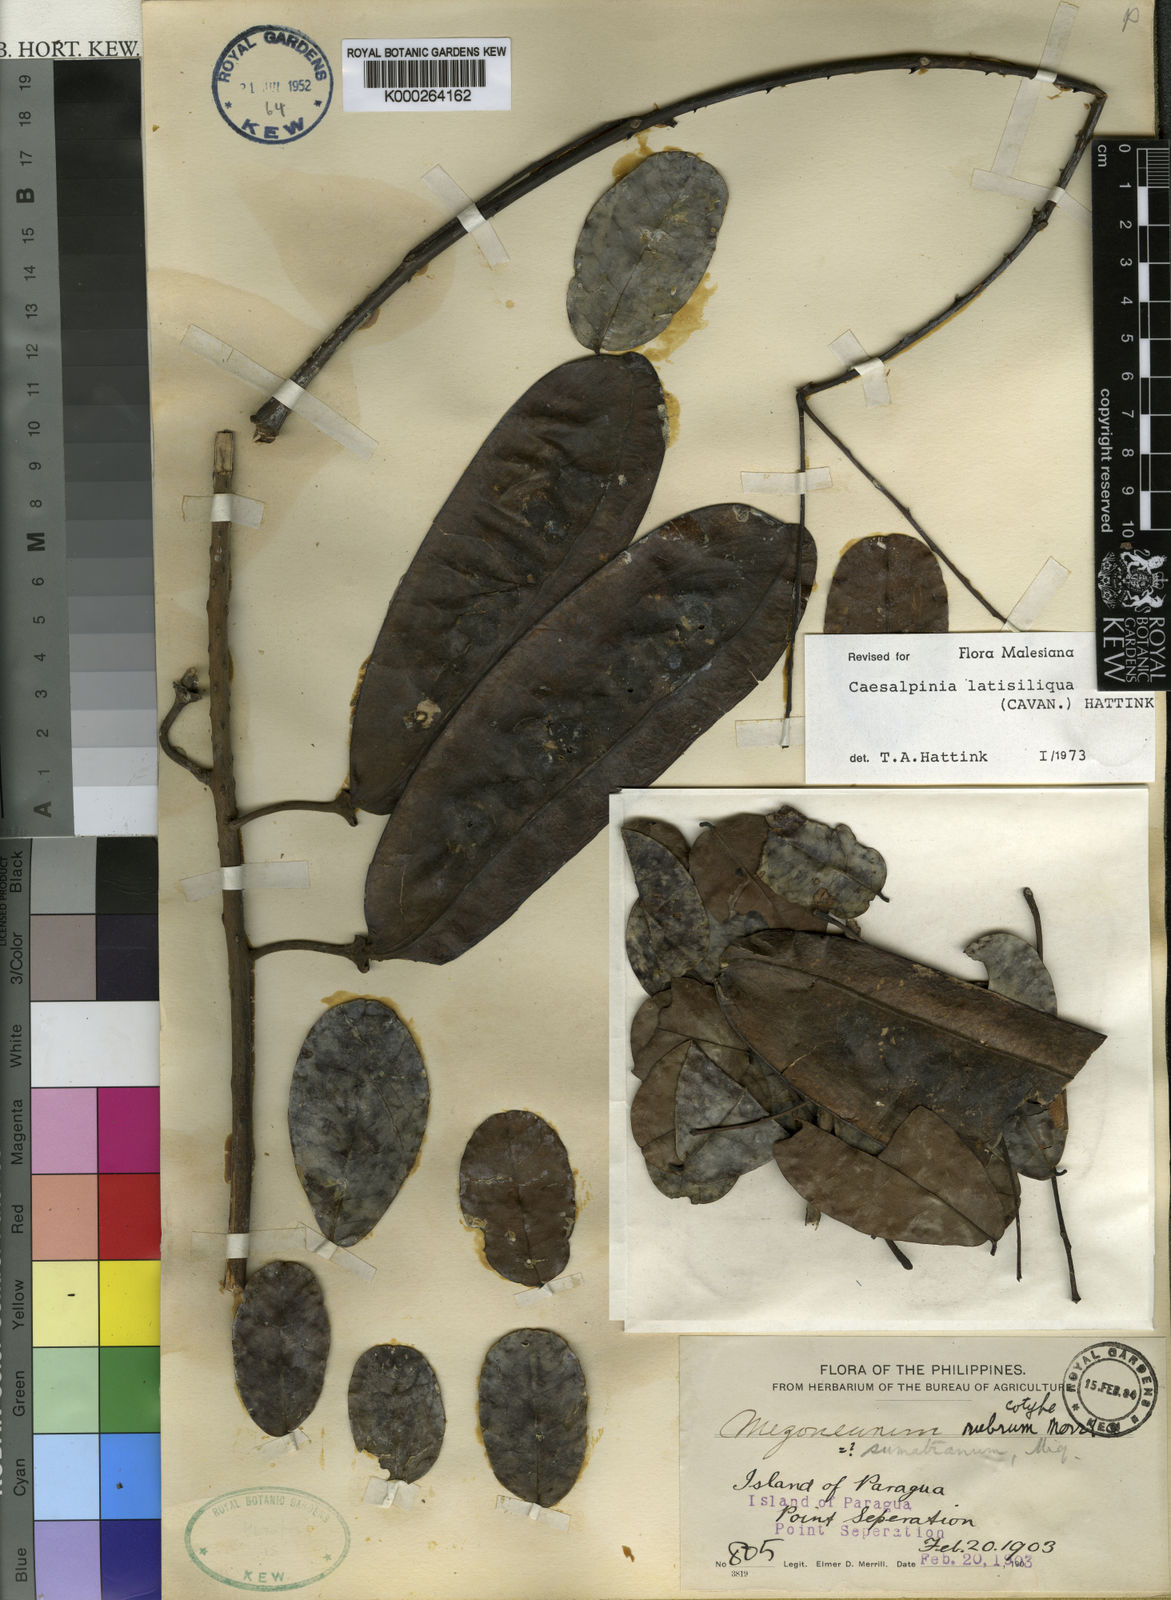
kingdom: Plantae
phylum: Tracheophyta
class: Magnoliopsida
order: Fabales
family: Fabaceae
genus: Mezoneuron
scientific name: Mezoneuron latisiliquum
